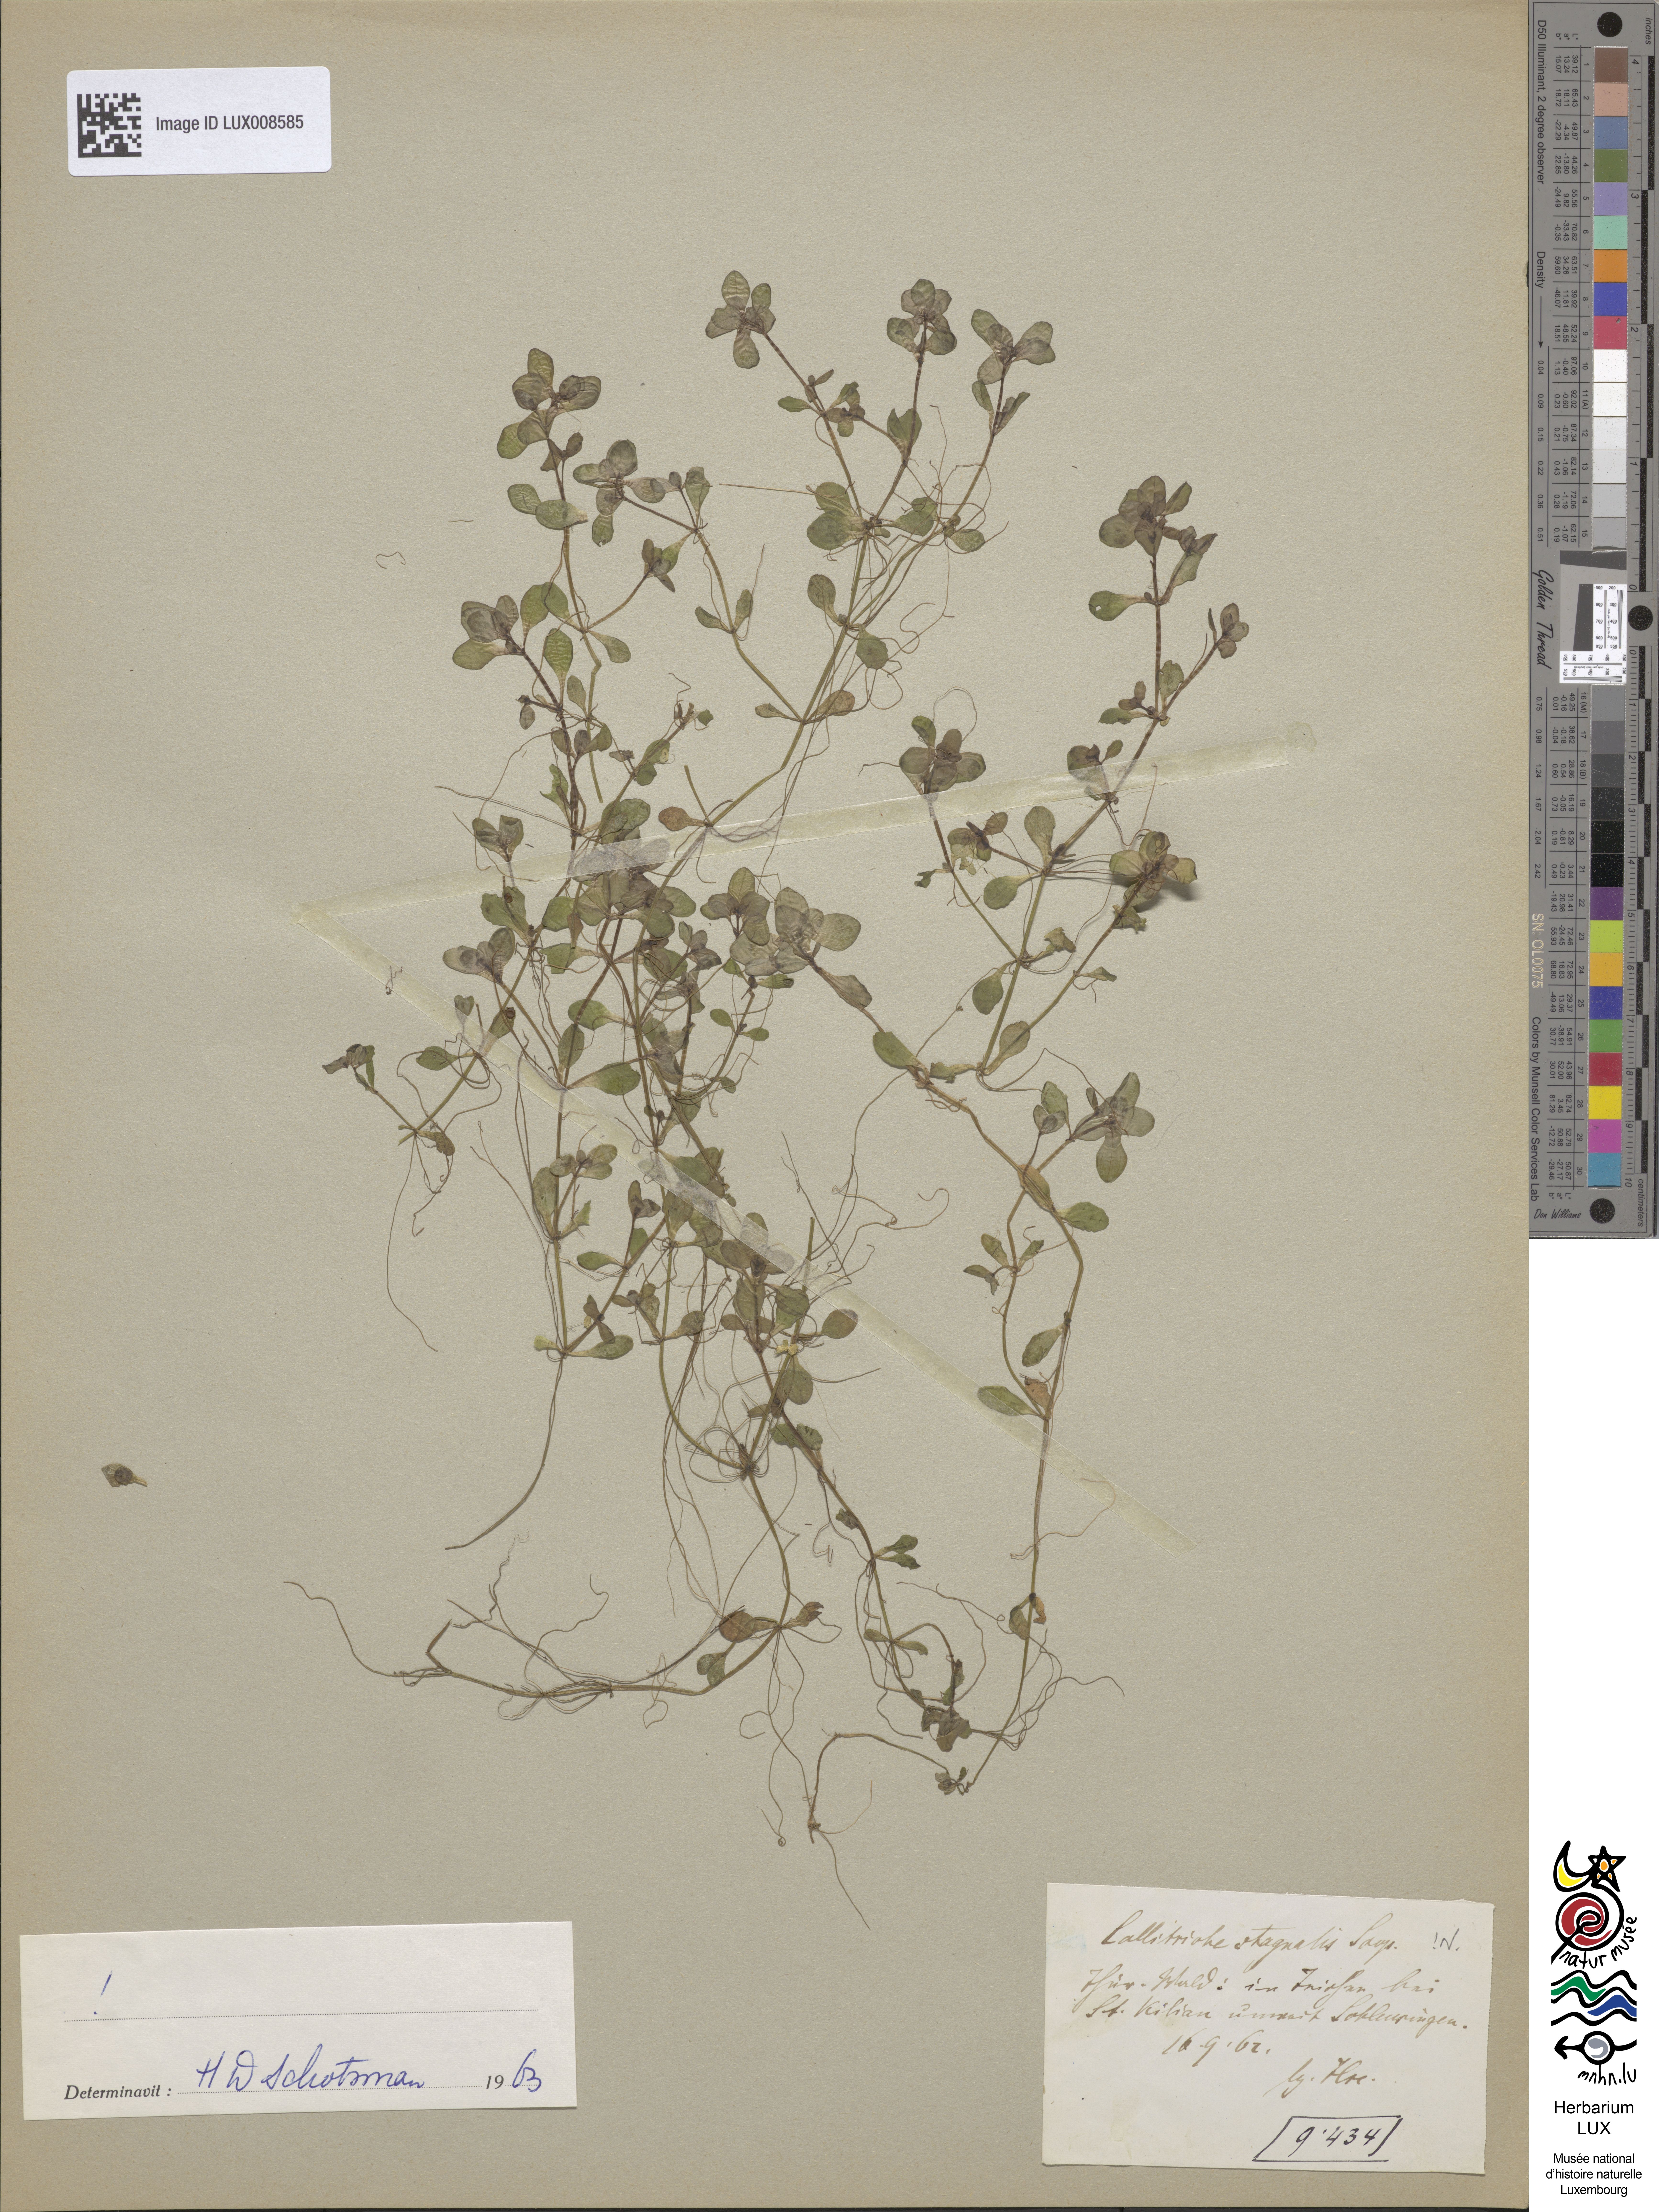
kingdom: Plantae
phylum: Tracheophyta
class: Magnoliopsida
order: Lamiales
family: Plantaginaceae
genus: Callitriche
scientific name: Callitriche stagnalis
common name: Common water-starwort
